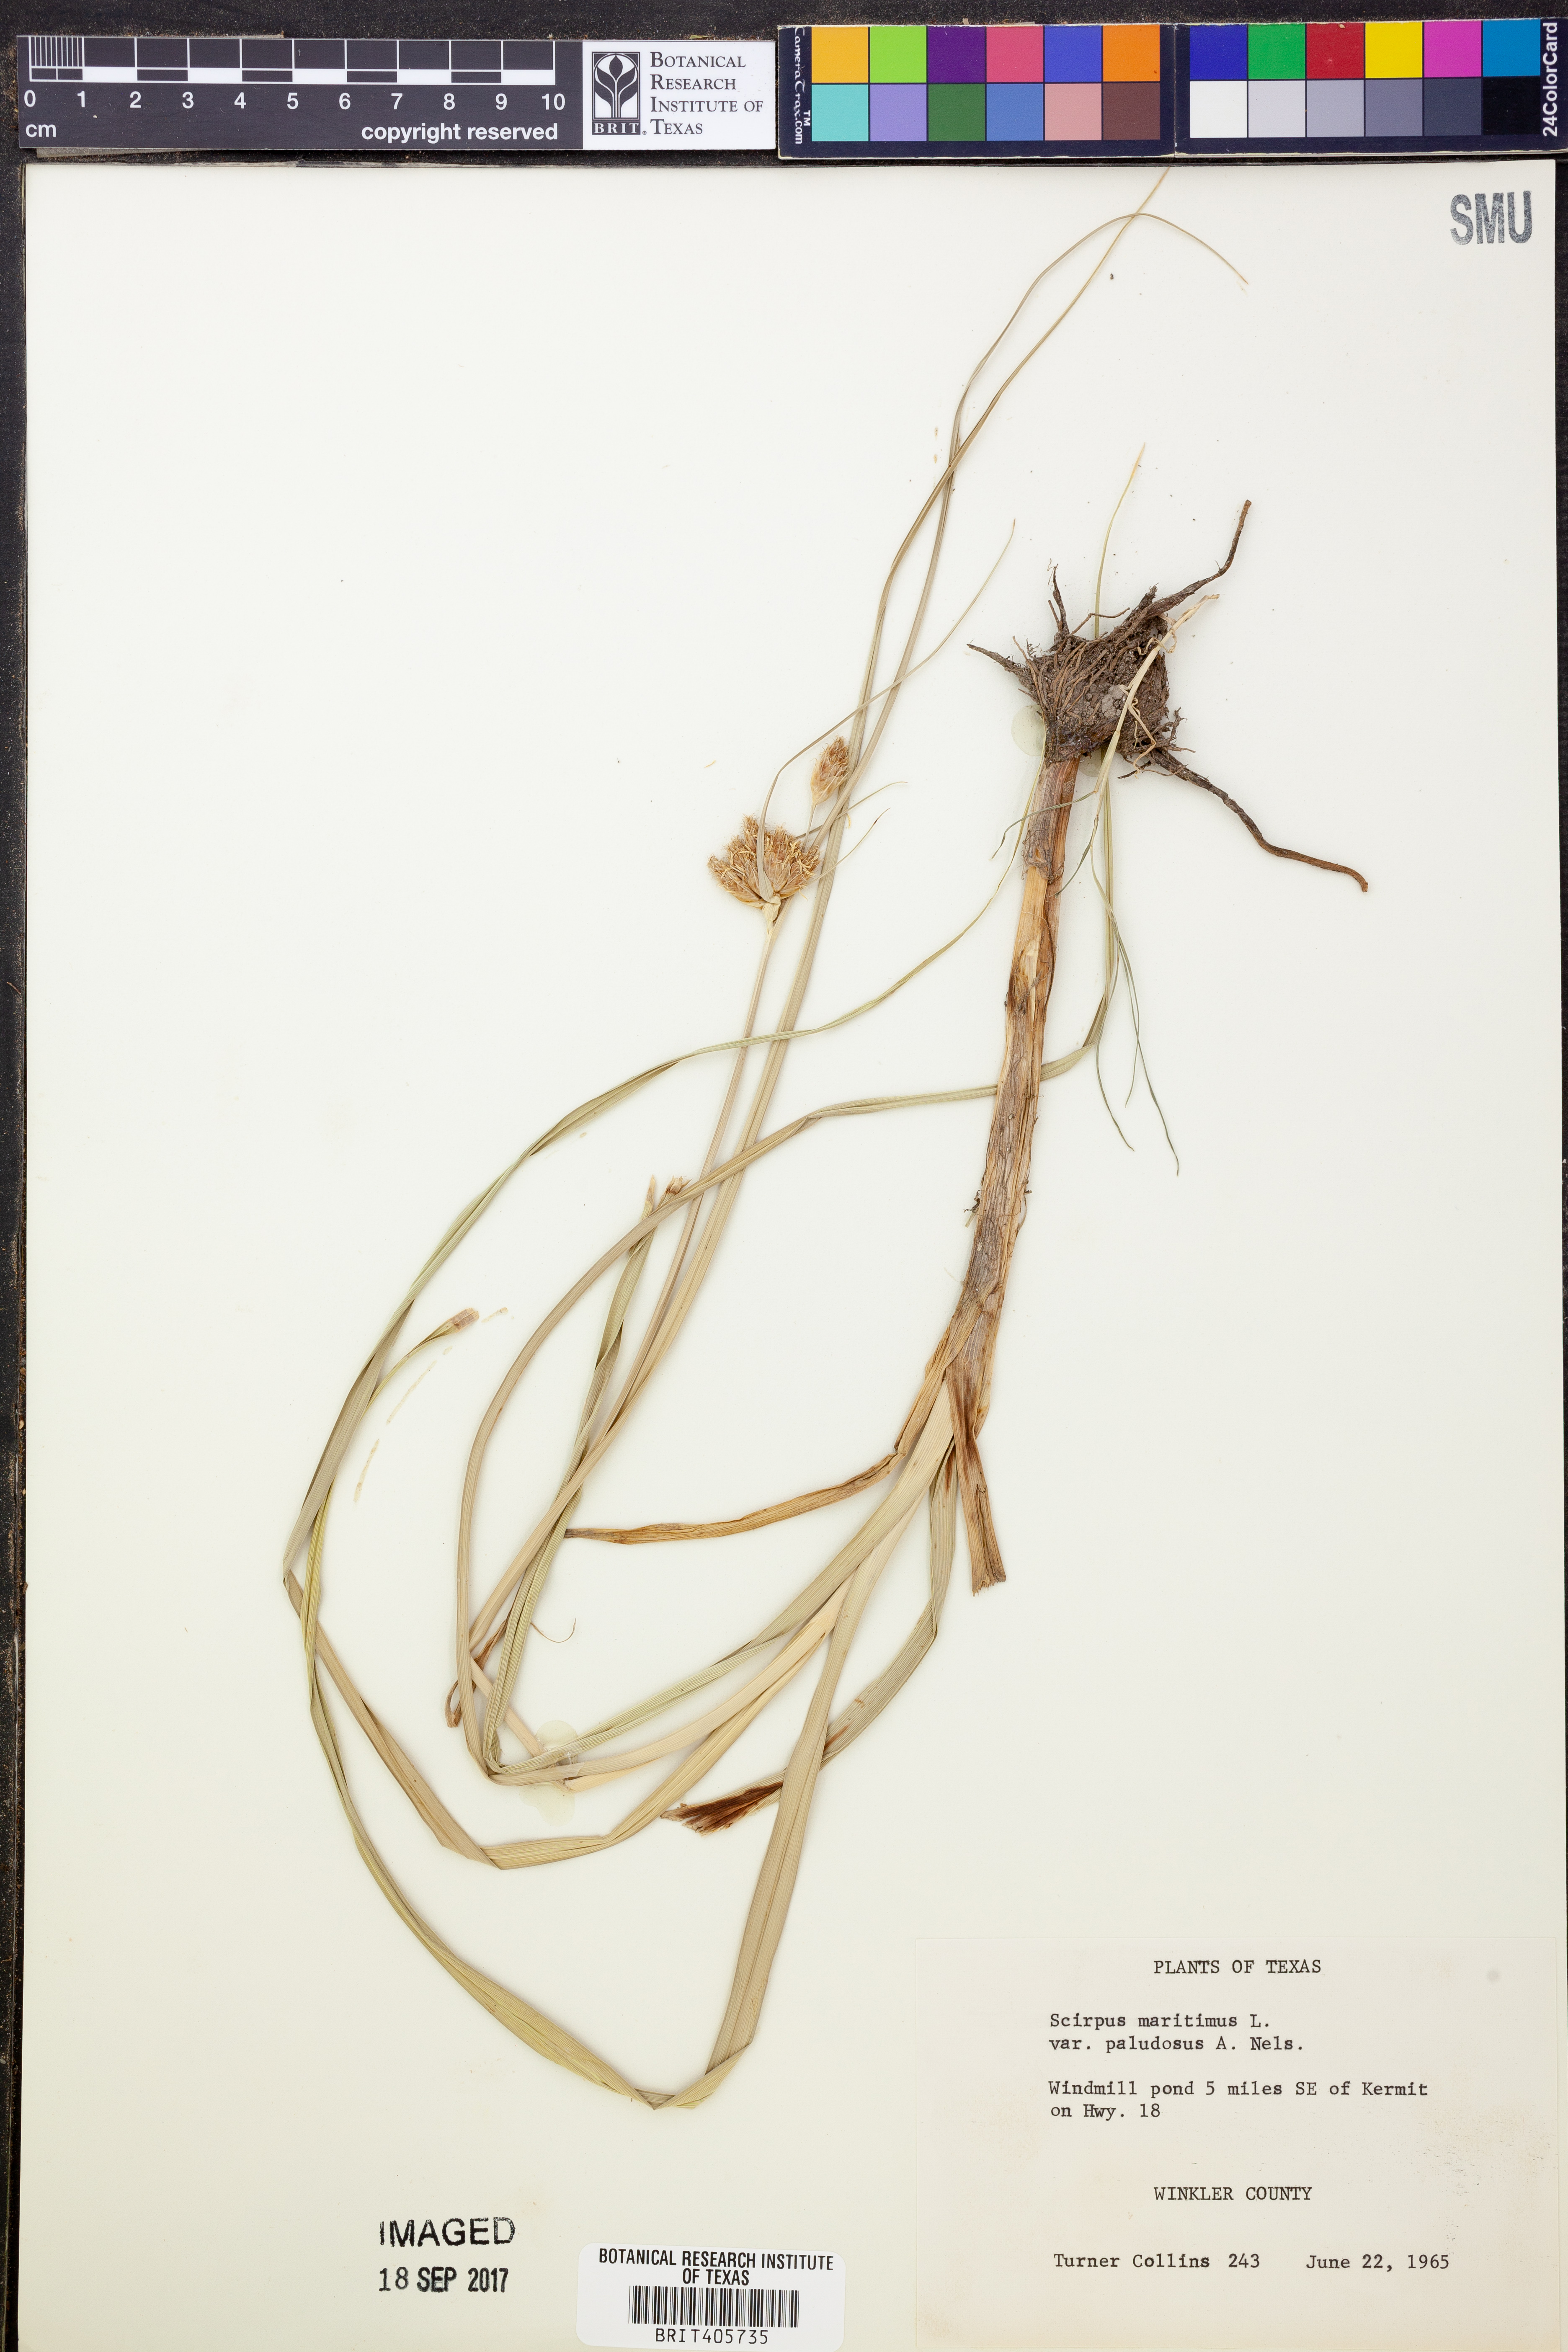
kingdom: Plantae
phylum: Tracheophyta
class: Liliopsida
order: Poales
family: Cyperaceae
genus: Bolboschoenus
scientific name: Bolboschoenus maritimus
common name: Sea club-rush
